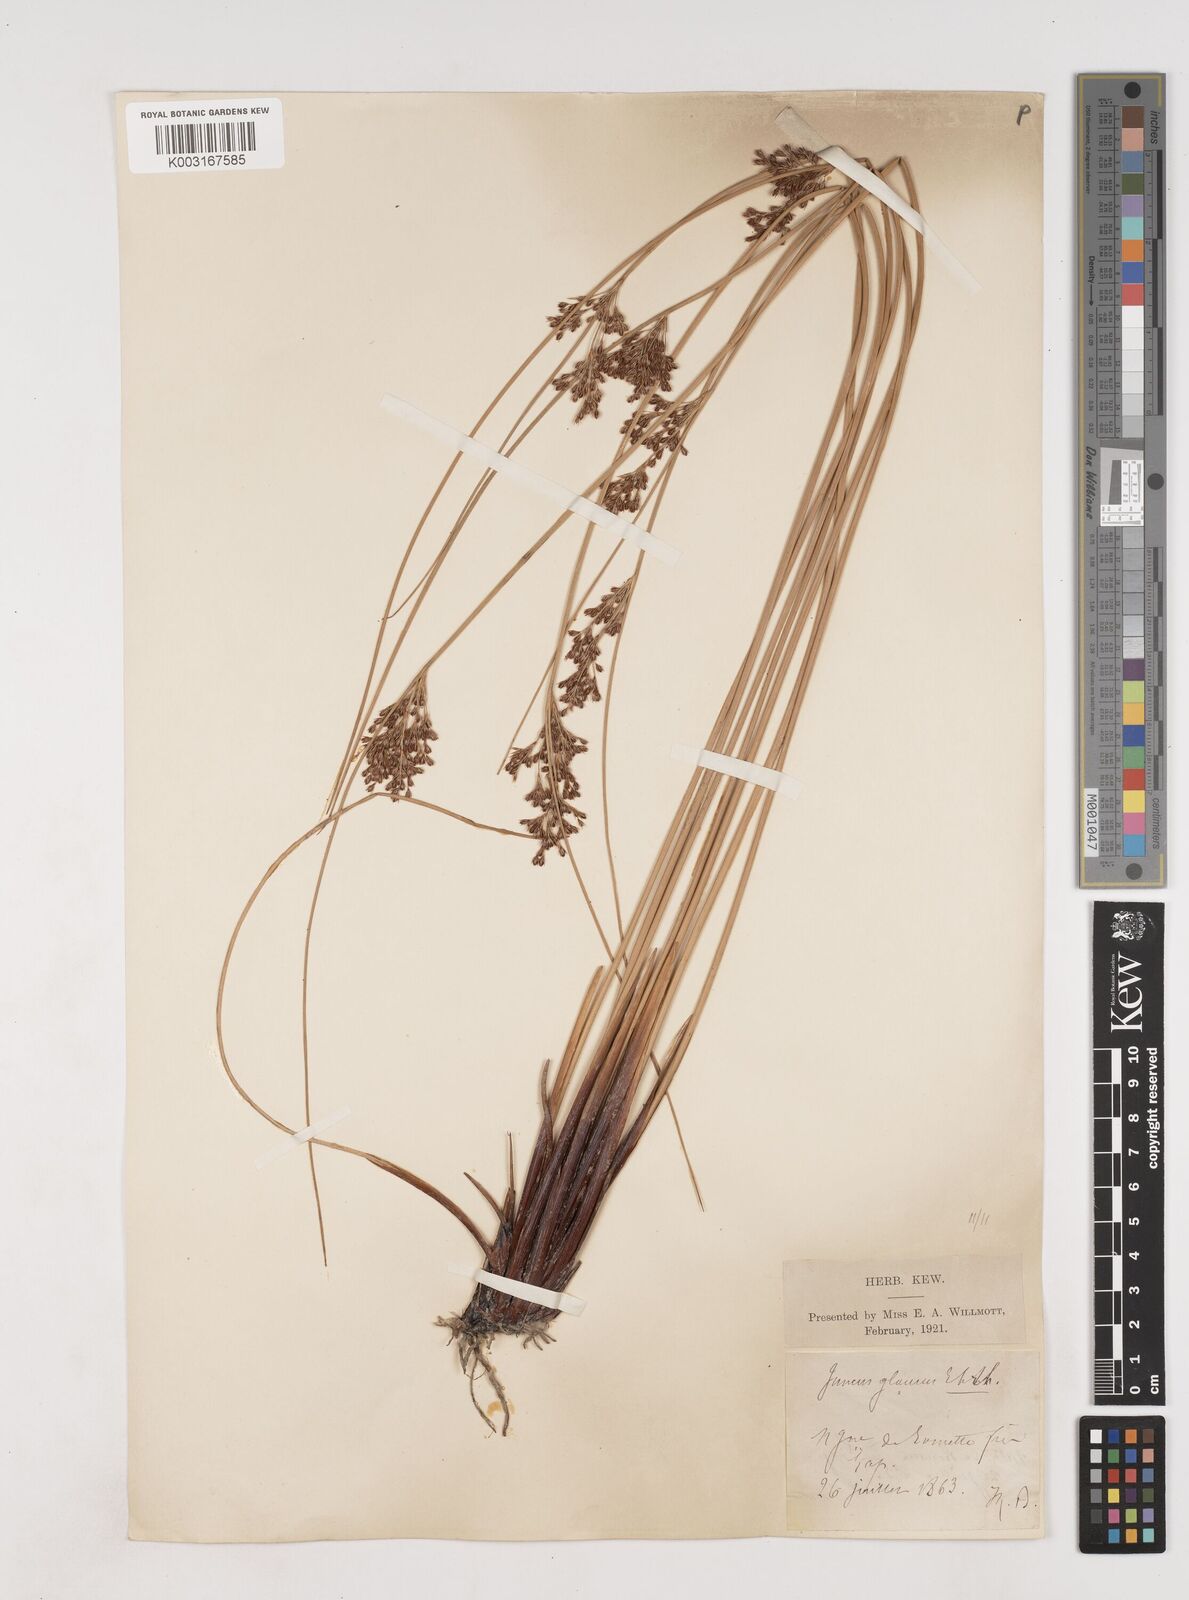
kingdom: Plantae
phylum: Tracheophyta
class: Liliopsida
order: Poales
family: Juncaceae
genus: Juncus
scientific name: Juncus inflexus
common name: Hard rush
